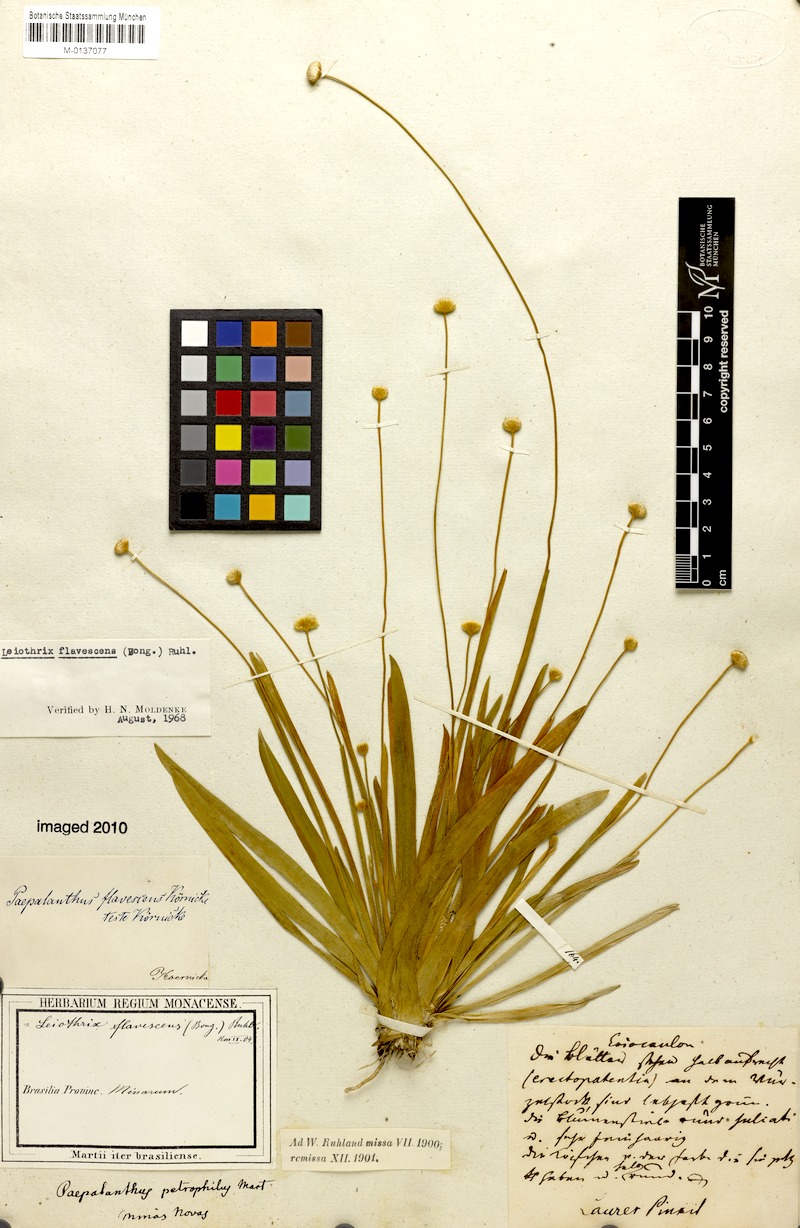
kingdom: Plantae
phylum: Tracheophyta
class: Liliopsida
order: Poales
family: Eriocaulaceae
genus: Leiothrix
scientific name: Leiothrix flavescens
